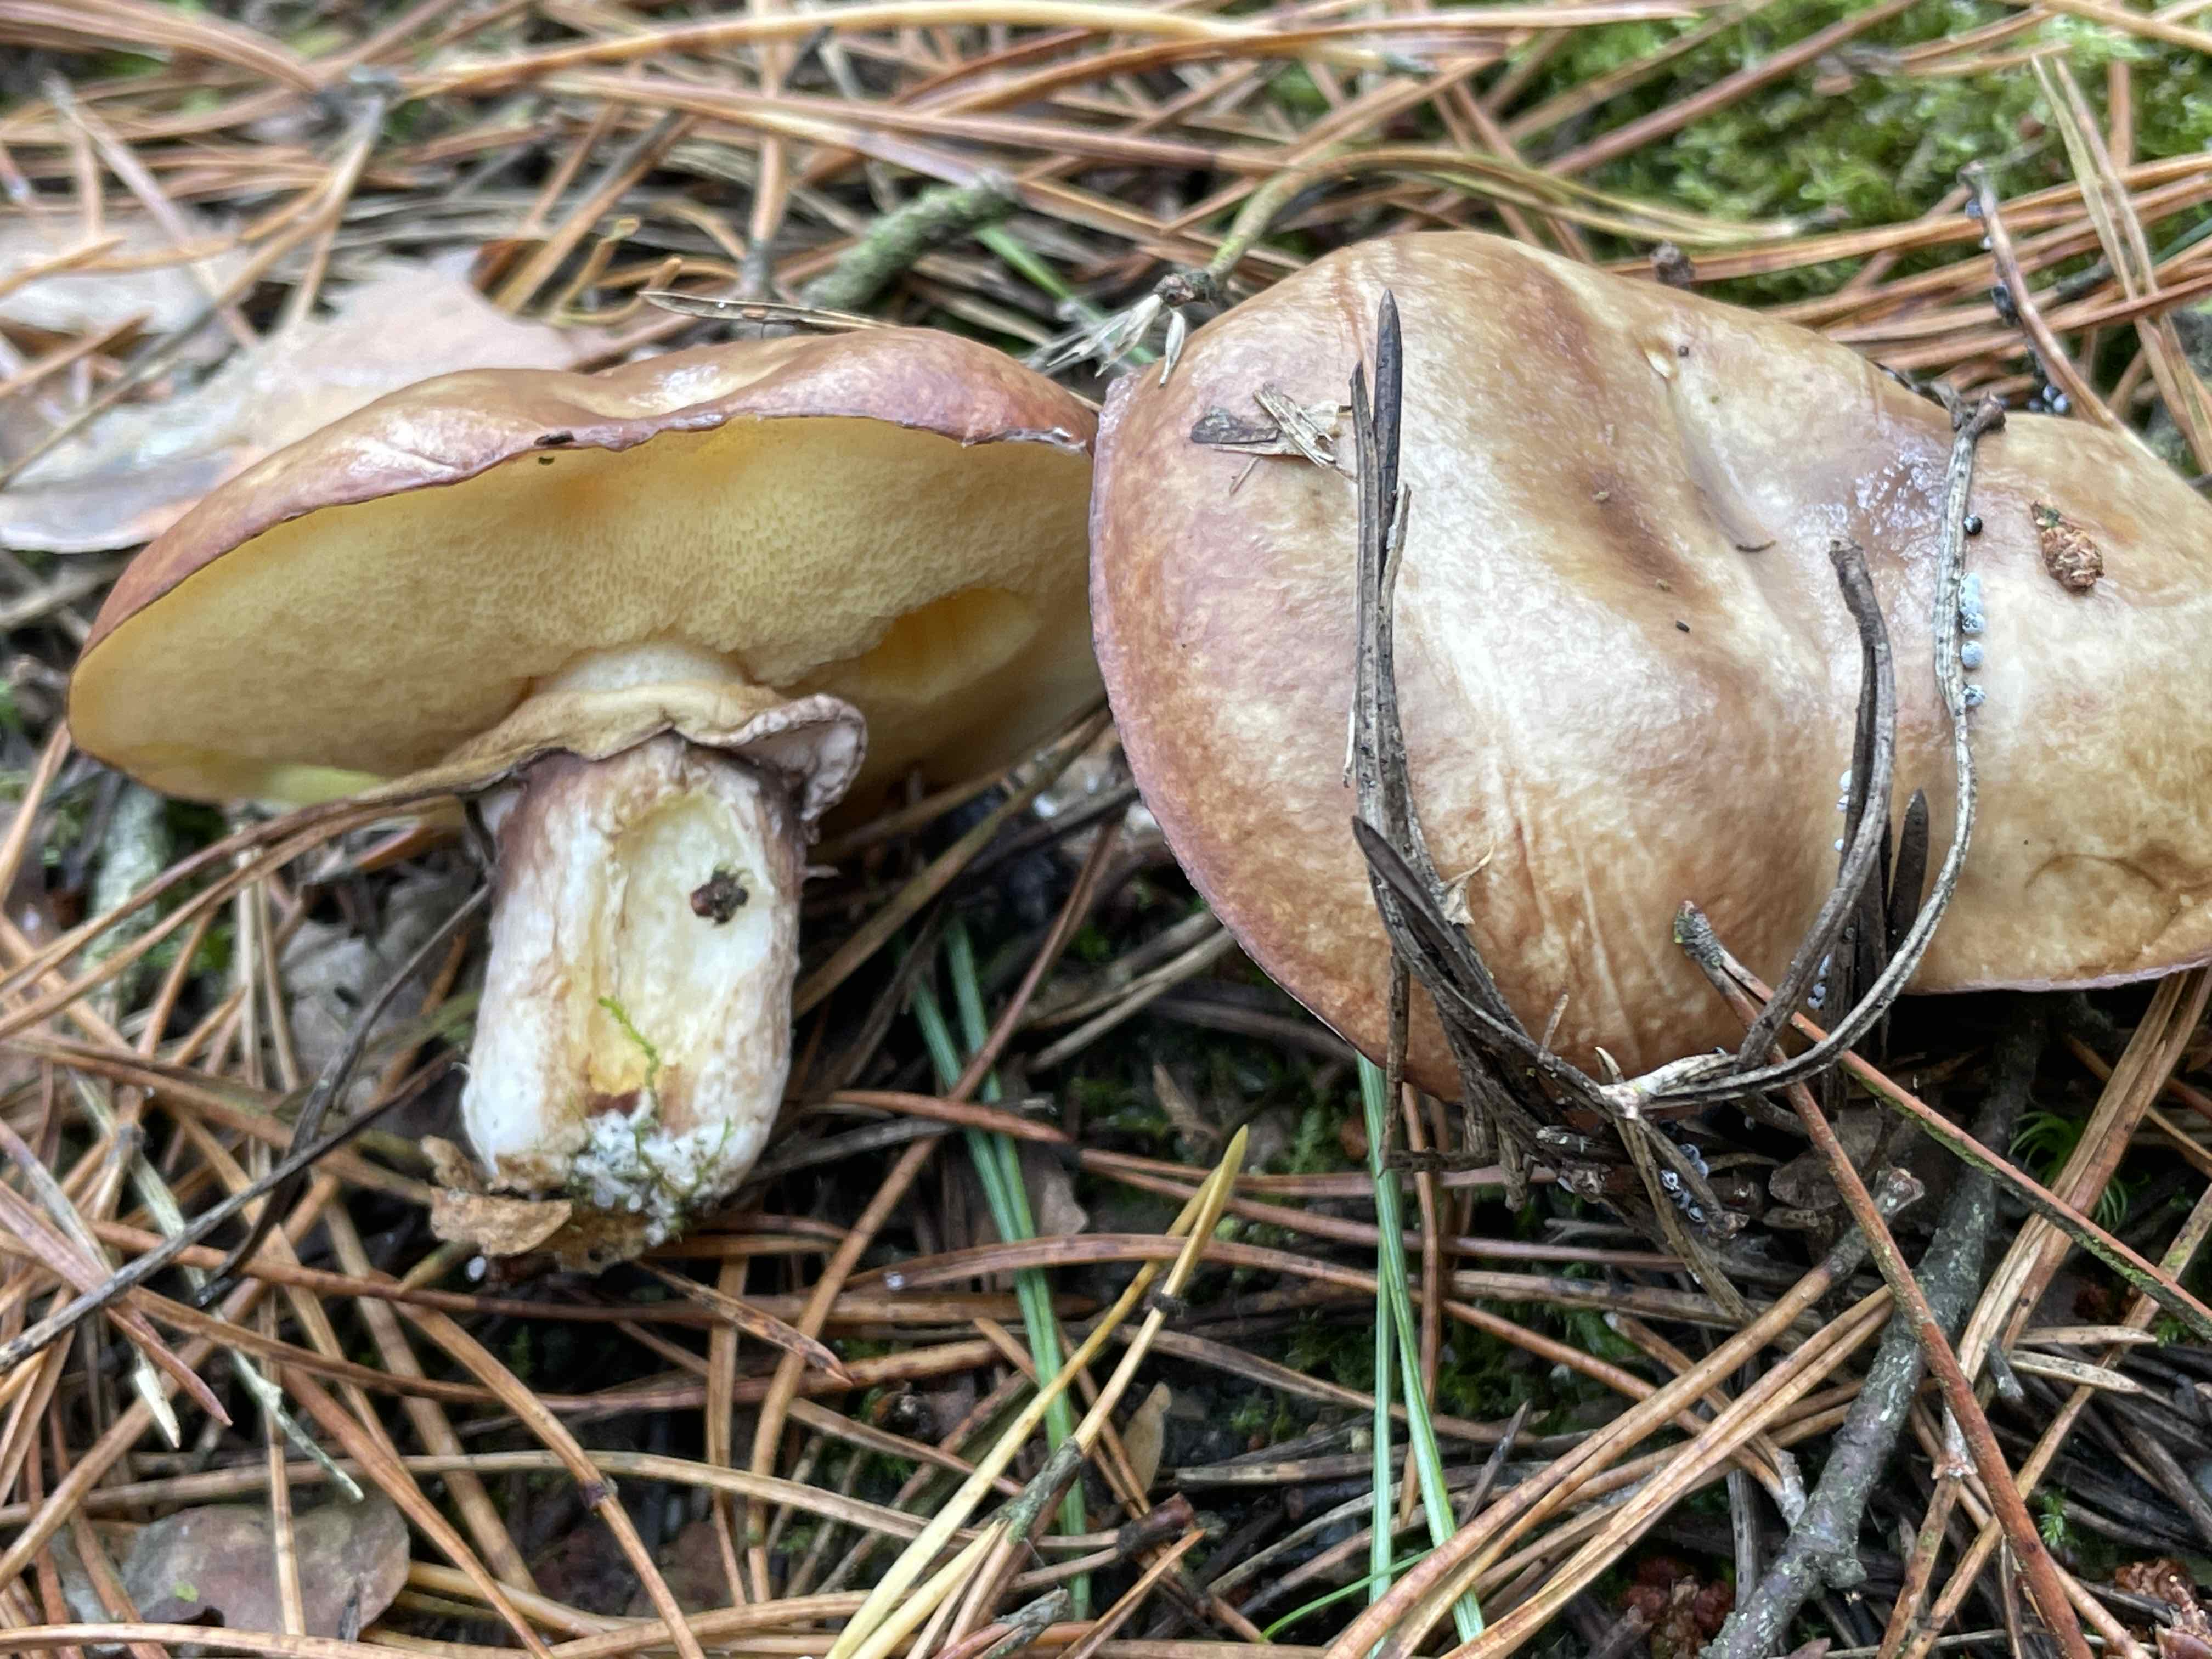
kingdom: Fungi
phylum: Basidiomycota
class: Agaricomycetes
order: Boletales
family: Suillaceae
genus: Suillus
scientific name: Suillus luteus
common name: brungul slimrørhat
